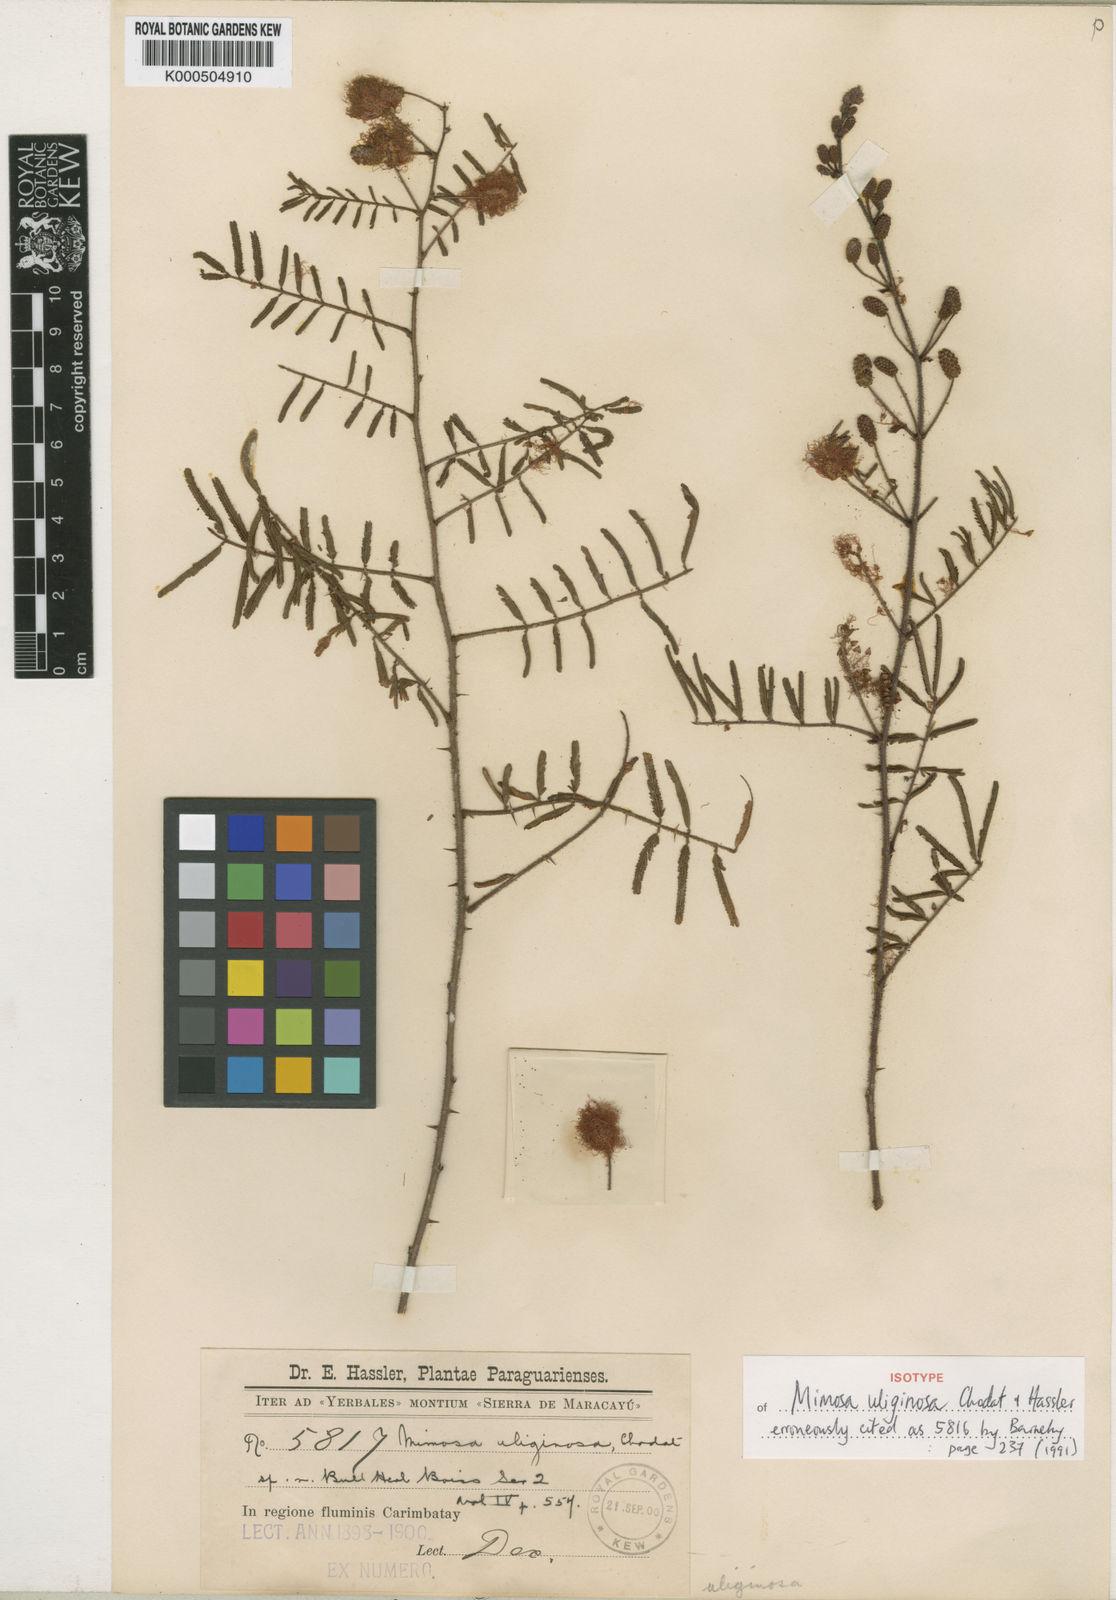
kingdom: Plantae
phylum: Tracheophyta
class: Magnoliopsida
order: Fabales
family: Fabaceae
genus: Mimosa
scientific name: Mimosa uliginosa
